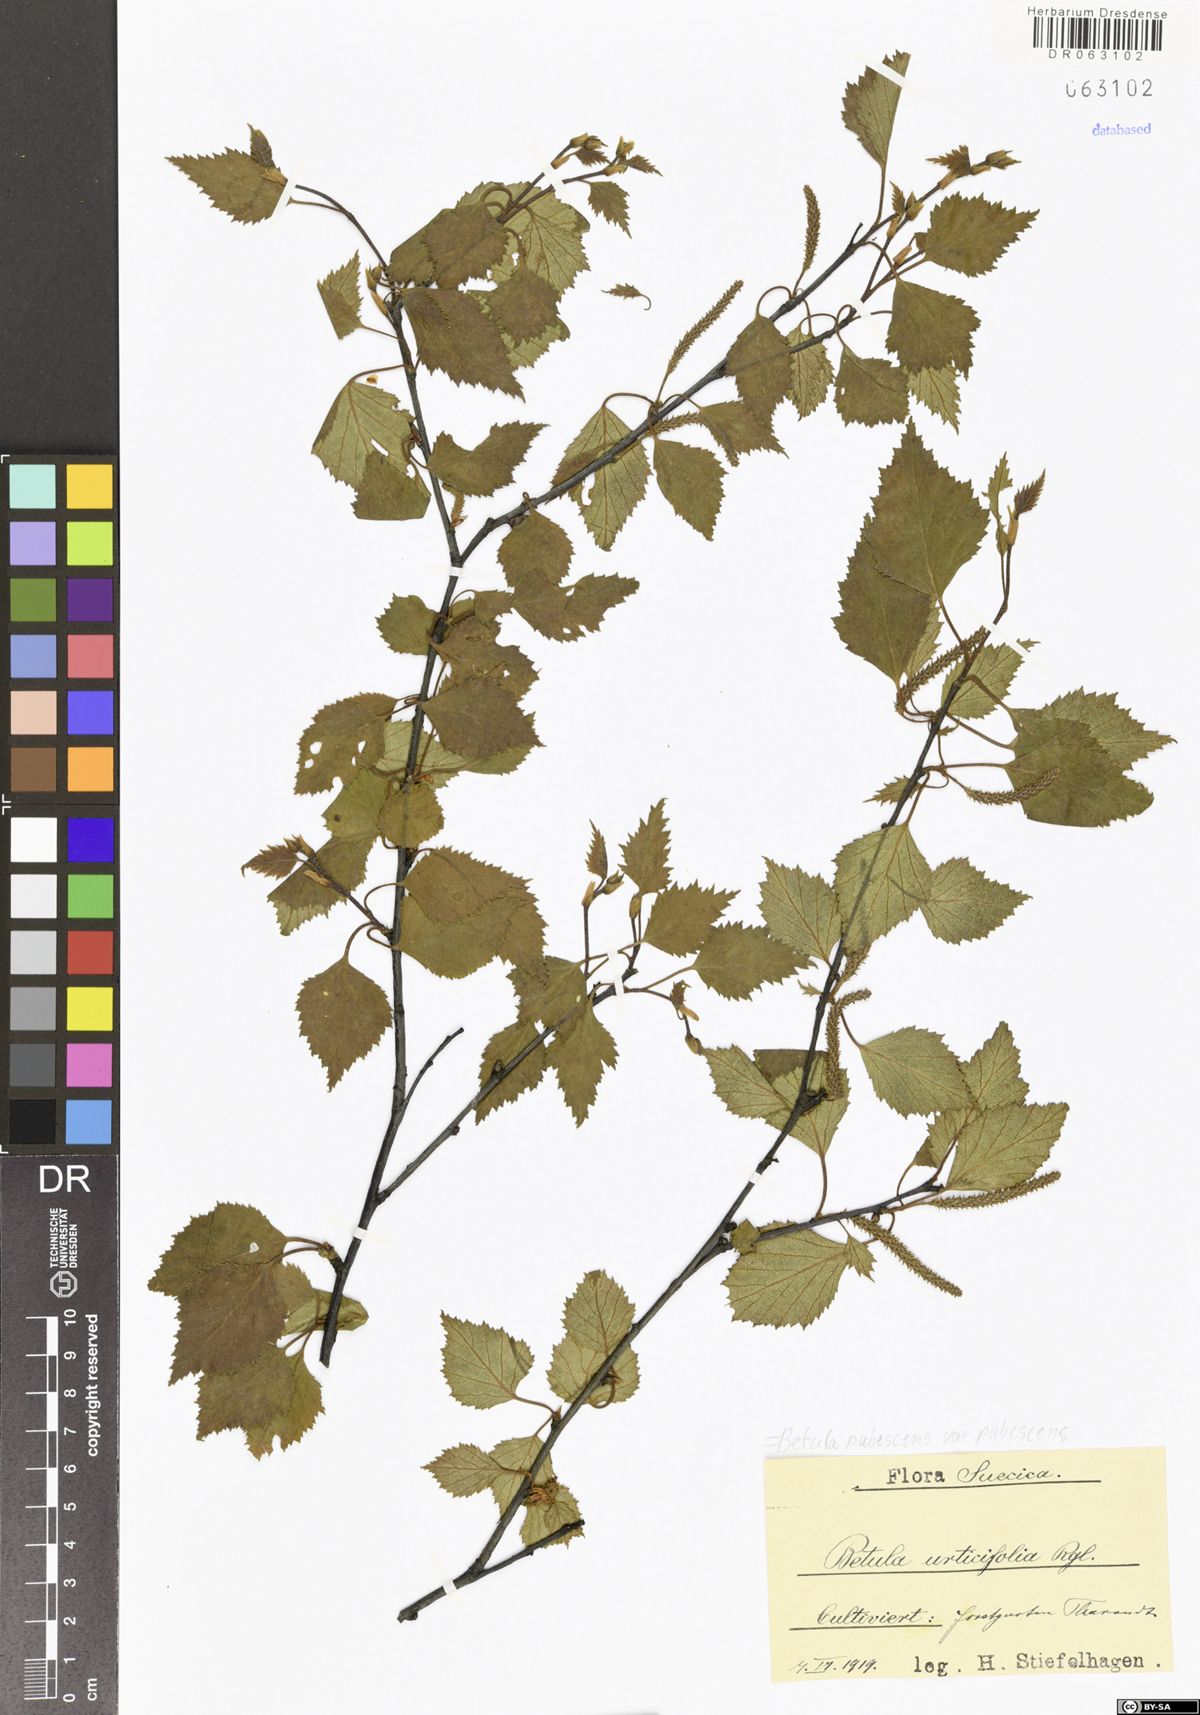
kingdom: Plantae
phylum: Tracheophyta
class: Magnoliopsida
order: Fagales
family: Betulaceae
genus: Betula
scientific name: Betula pubescens
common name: Downy birch
